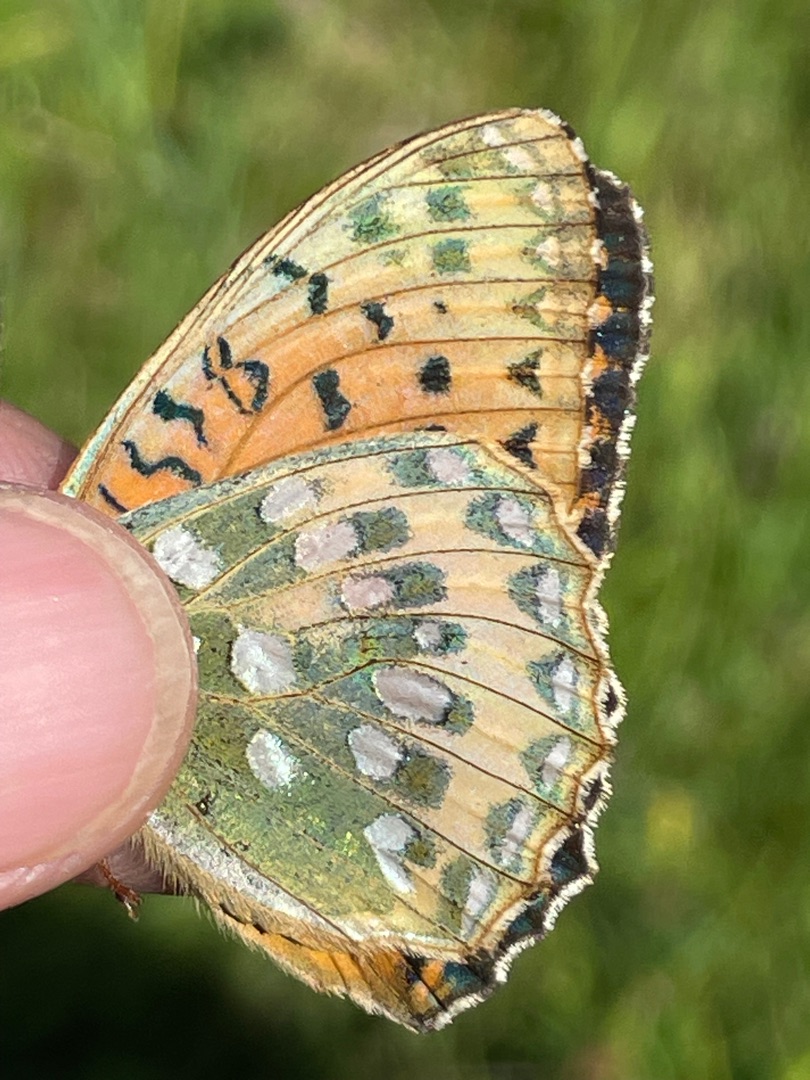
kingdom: Animalia
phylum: Arthropoda
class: Insecta
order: Lepidoptera
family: Nymphalidae
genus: Speyeria
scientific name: Speyeria aglaja
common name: Markperlemorsommerfugl
